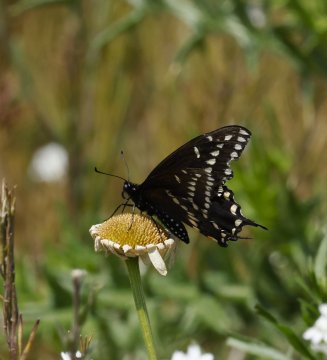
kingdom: Animalia
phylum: Arthropoda
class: Insecta
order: Lepidoptera
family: Papilionidae
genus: Papilio
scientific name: Papilio polyxenes
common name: Black Swallowtail
